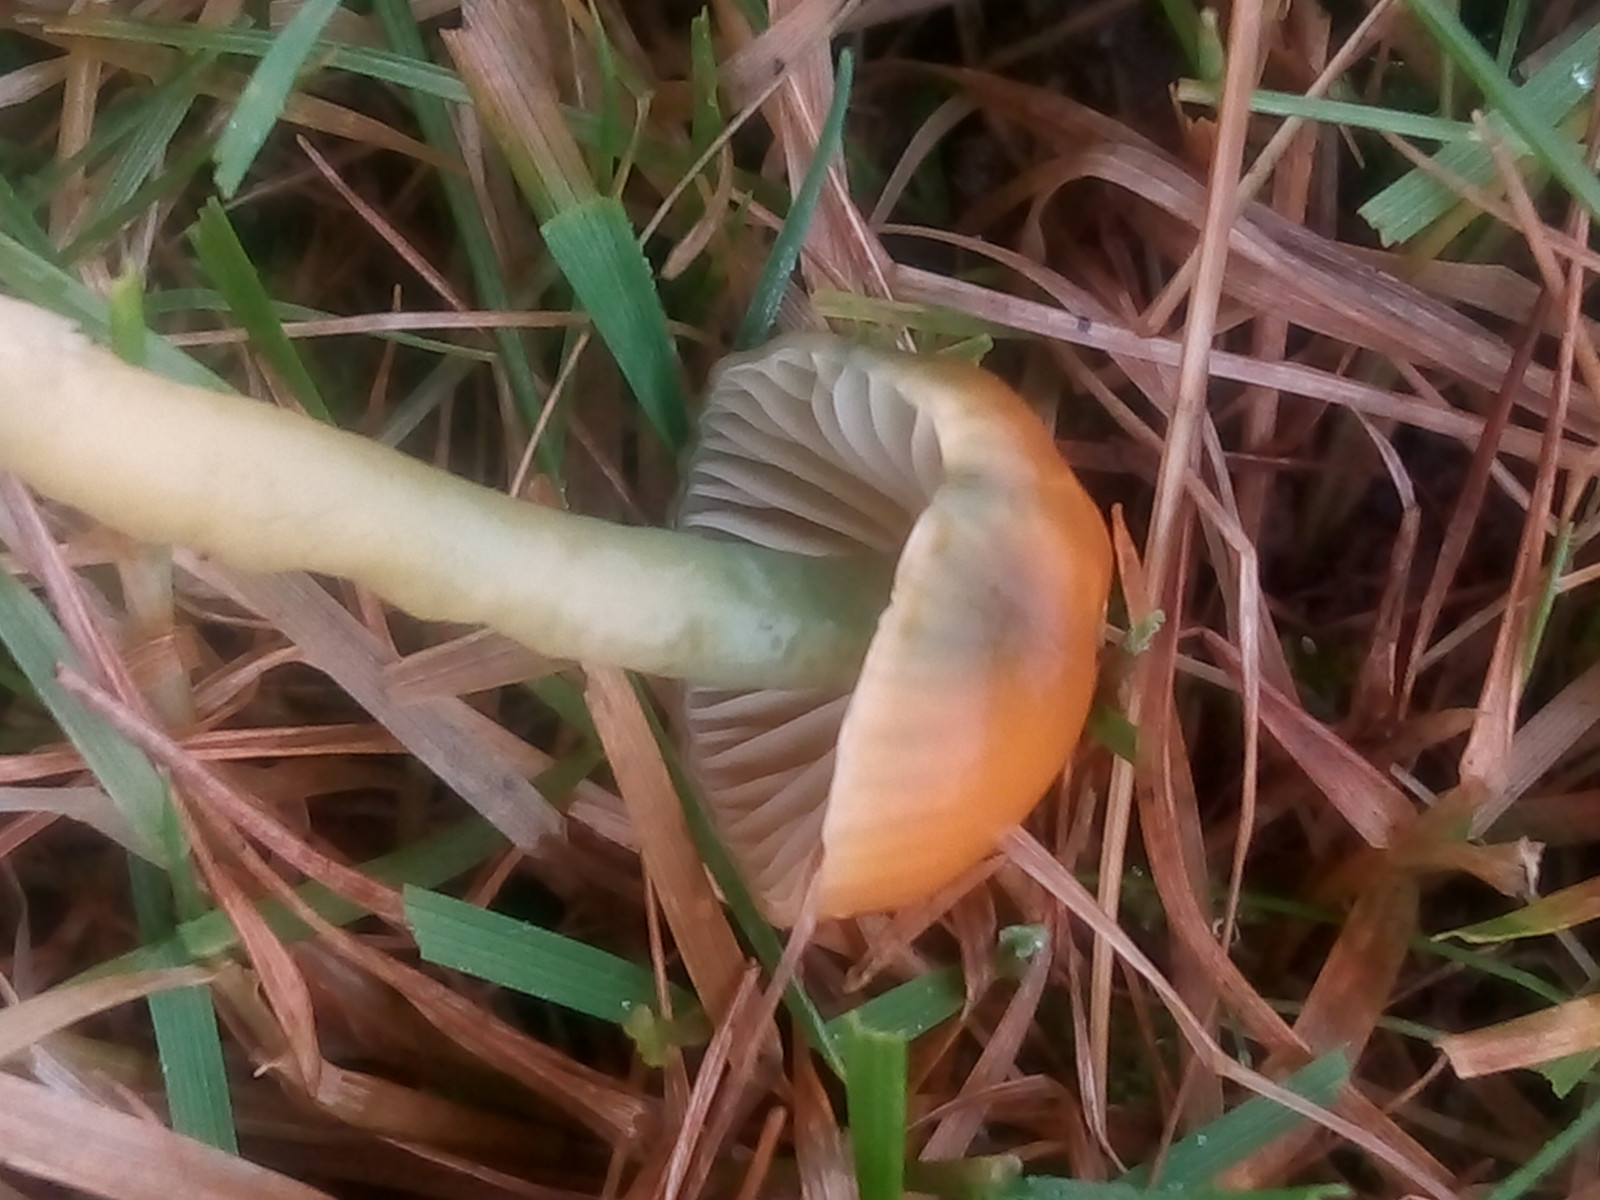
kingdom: Fungi
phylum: Basidiomycota
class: Agaricomycetes
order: Agaricales
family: Hygrophoraceae
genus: Gliophorus
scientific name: Gliophorus psittacinus
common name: papegøje-vokshat
